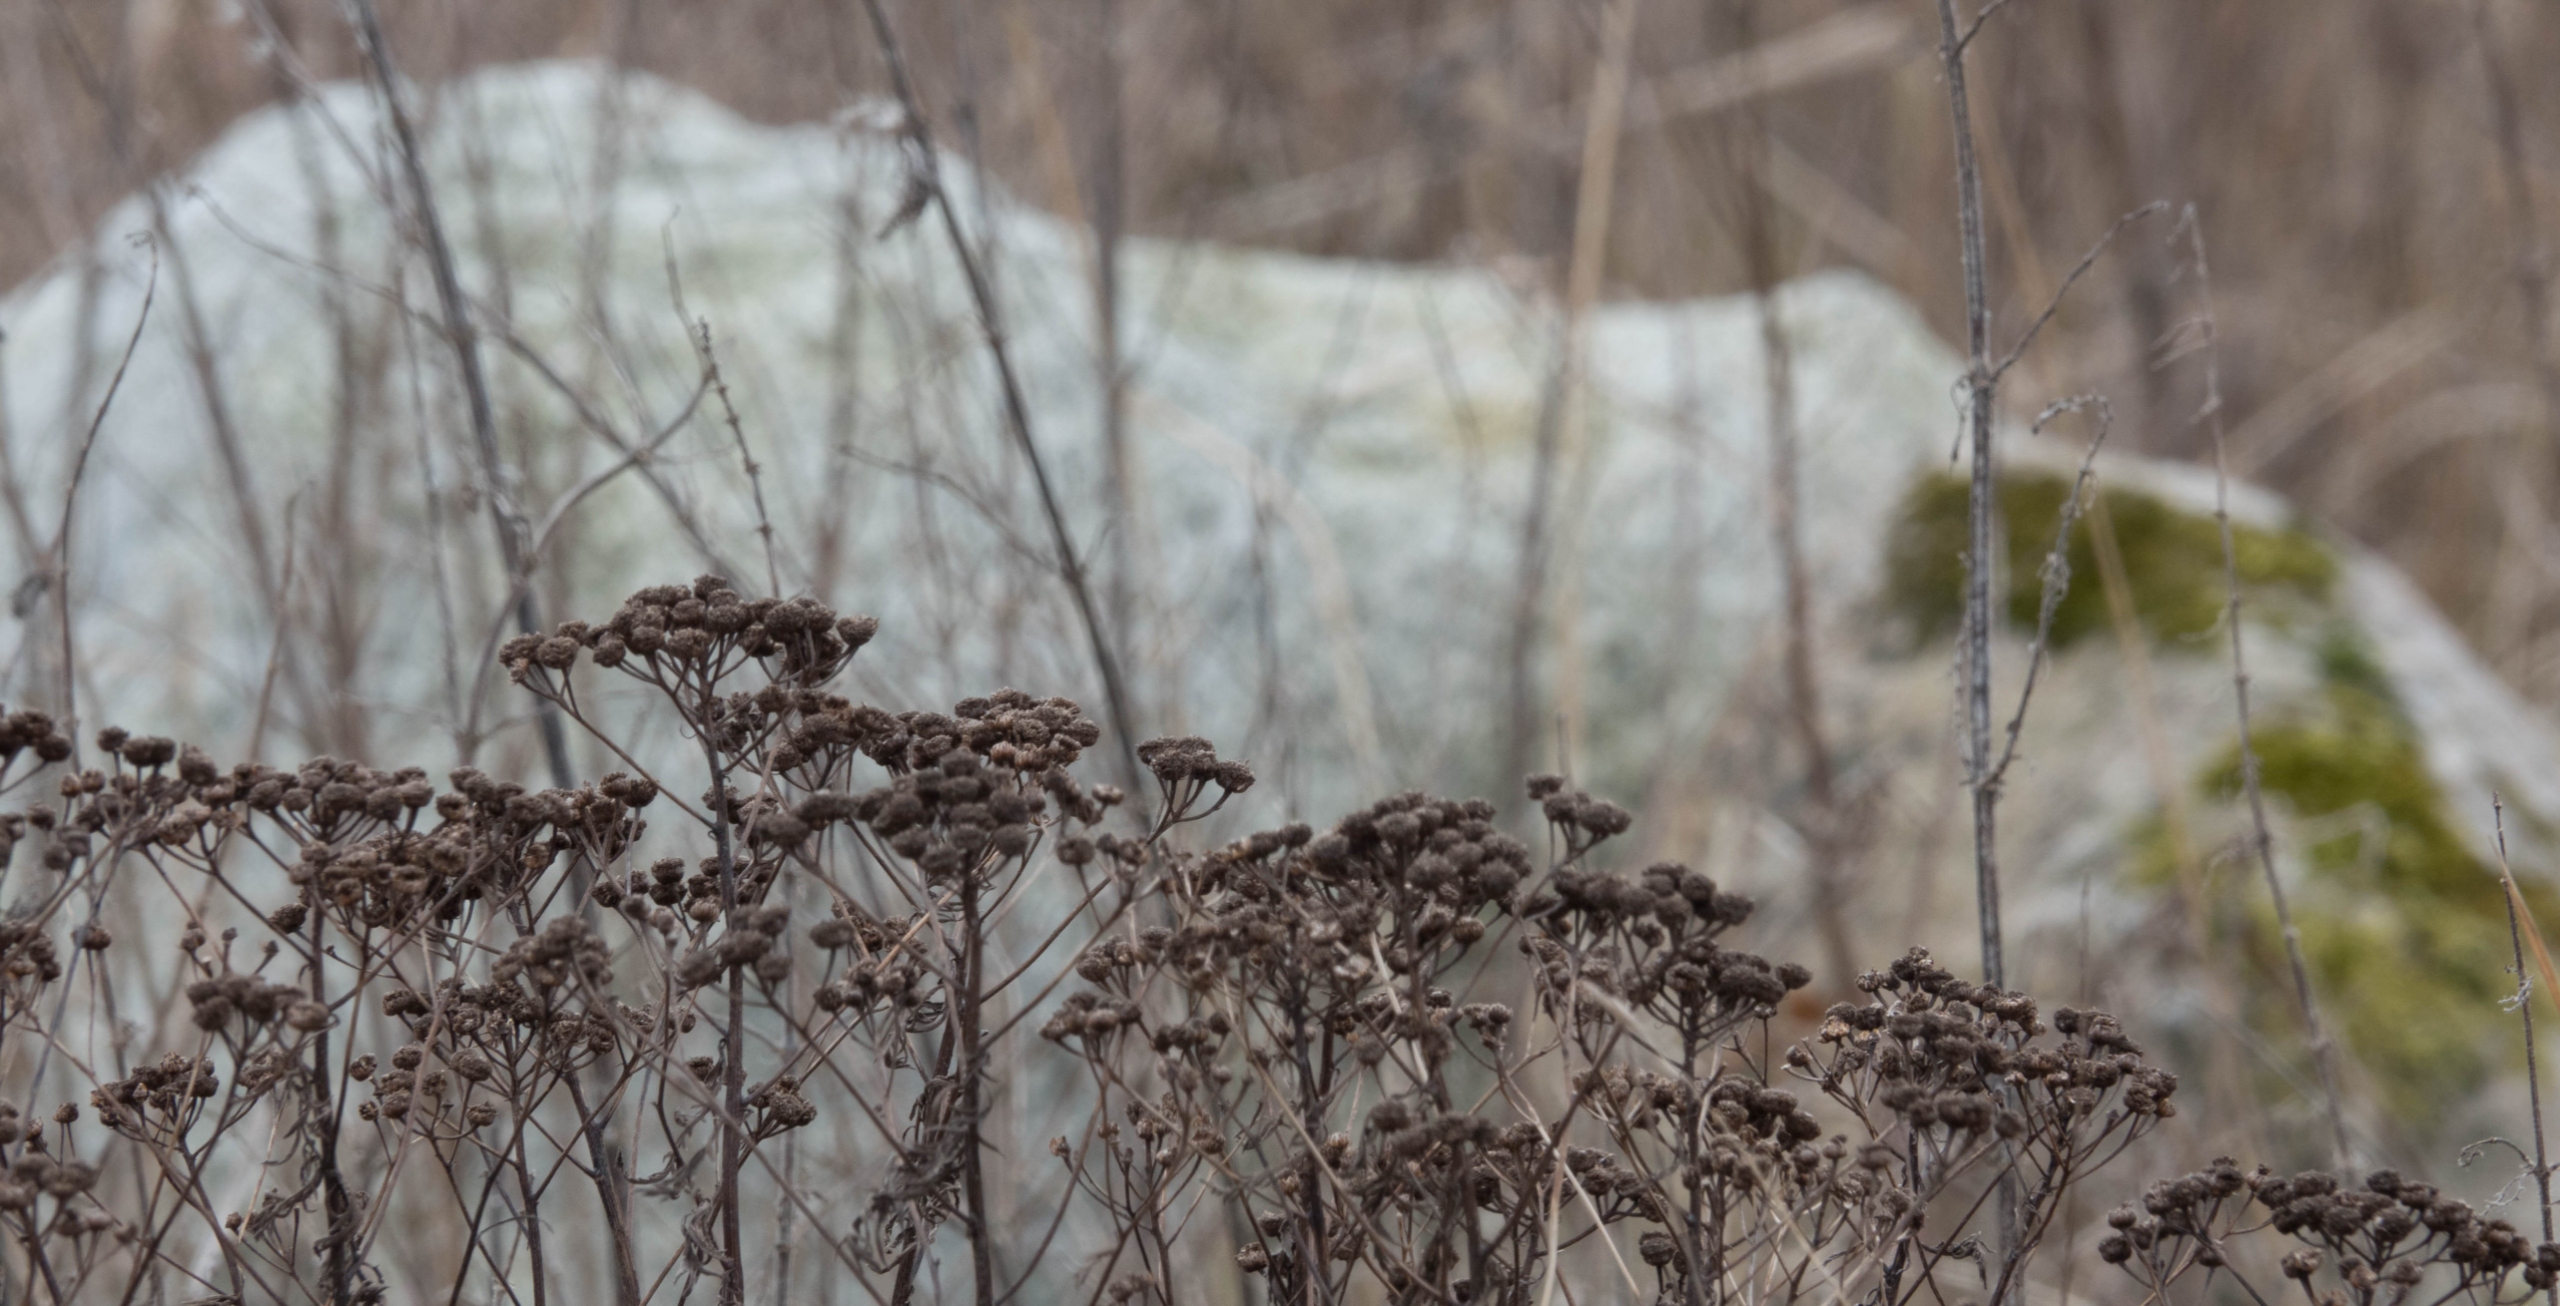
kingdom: Plantae
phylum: Tracheophyta
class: Magnoliopsida
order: Asterales
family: Asteraceae
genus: Tanacetum
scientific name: Tanacetum vulgare
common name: Rejnfan
